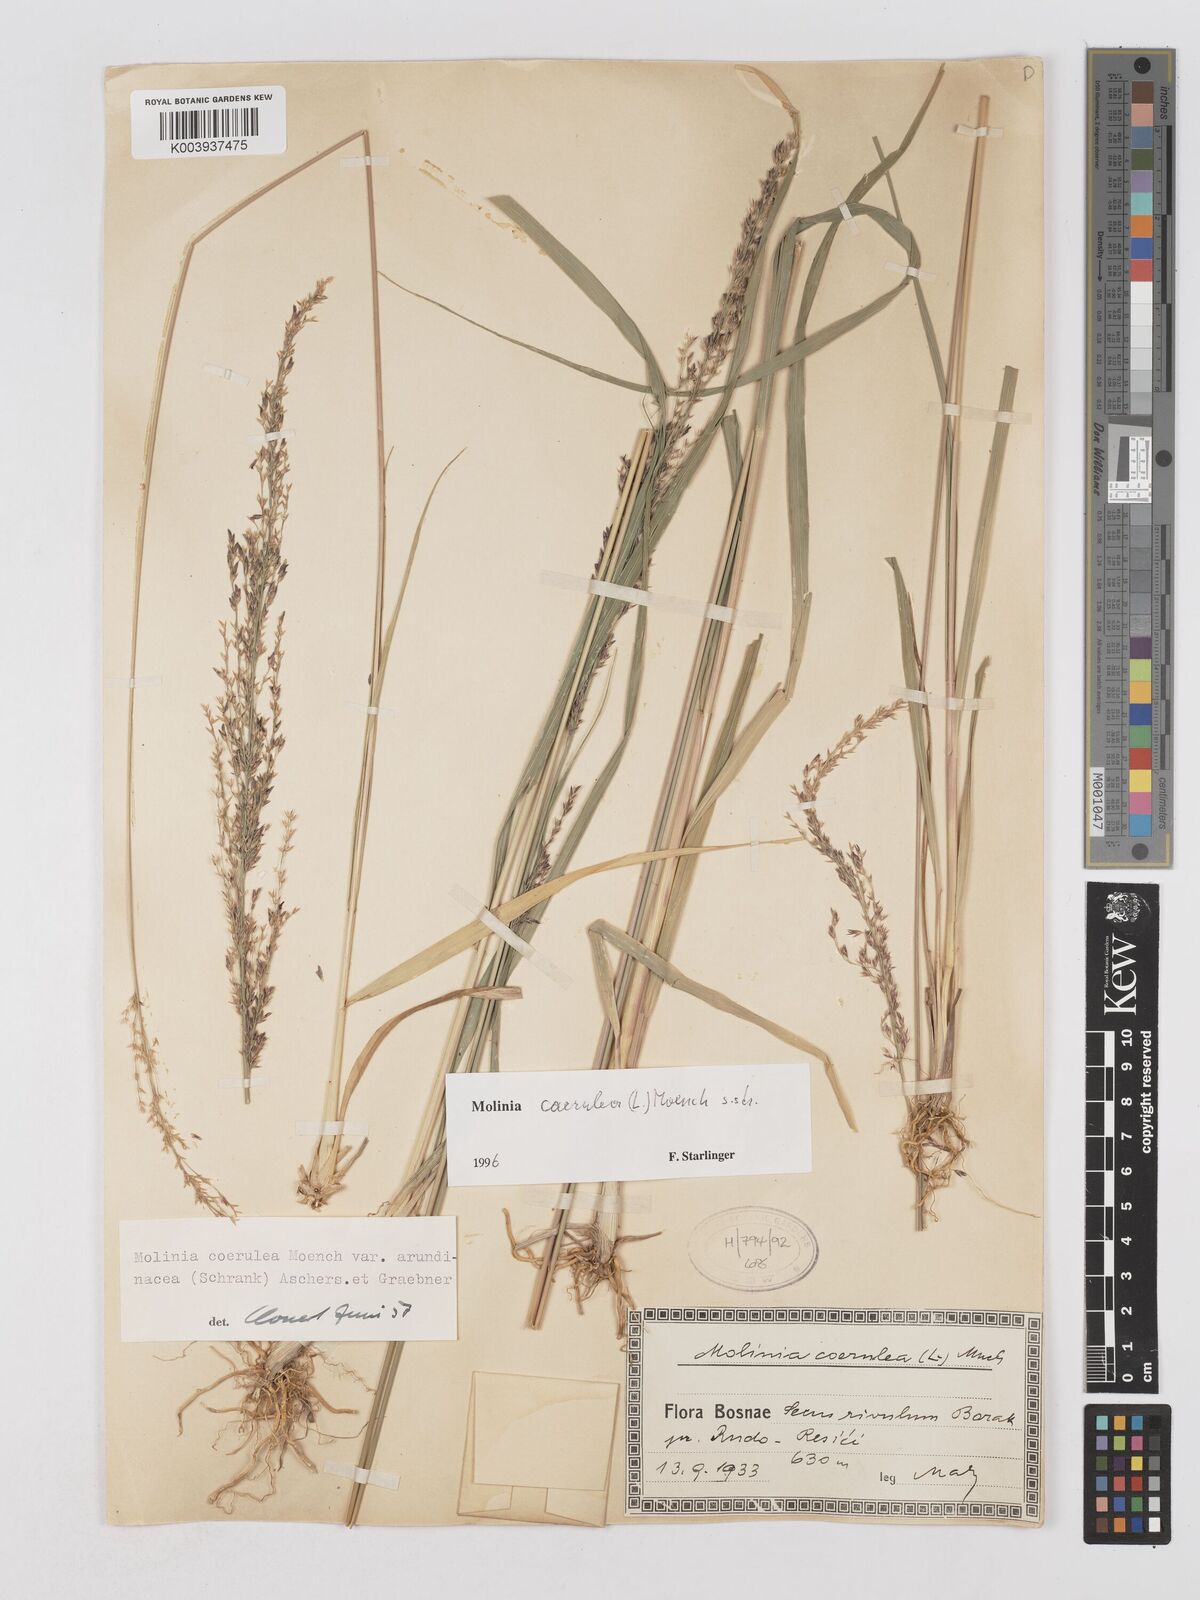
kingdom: Plantae
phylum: Tracheophyta
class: Liliopsida
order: Poales
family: Poaceae
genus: Molinia
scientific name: Molinia caerulea
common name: Purple moor-grass
